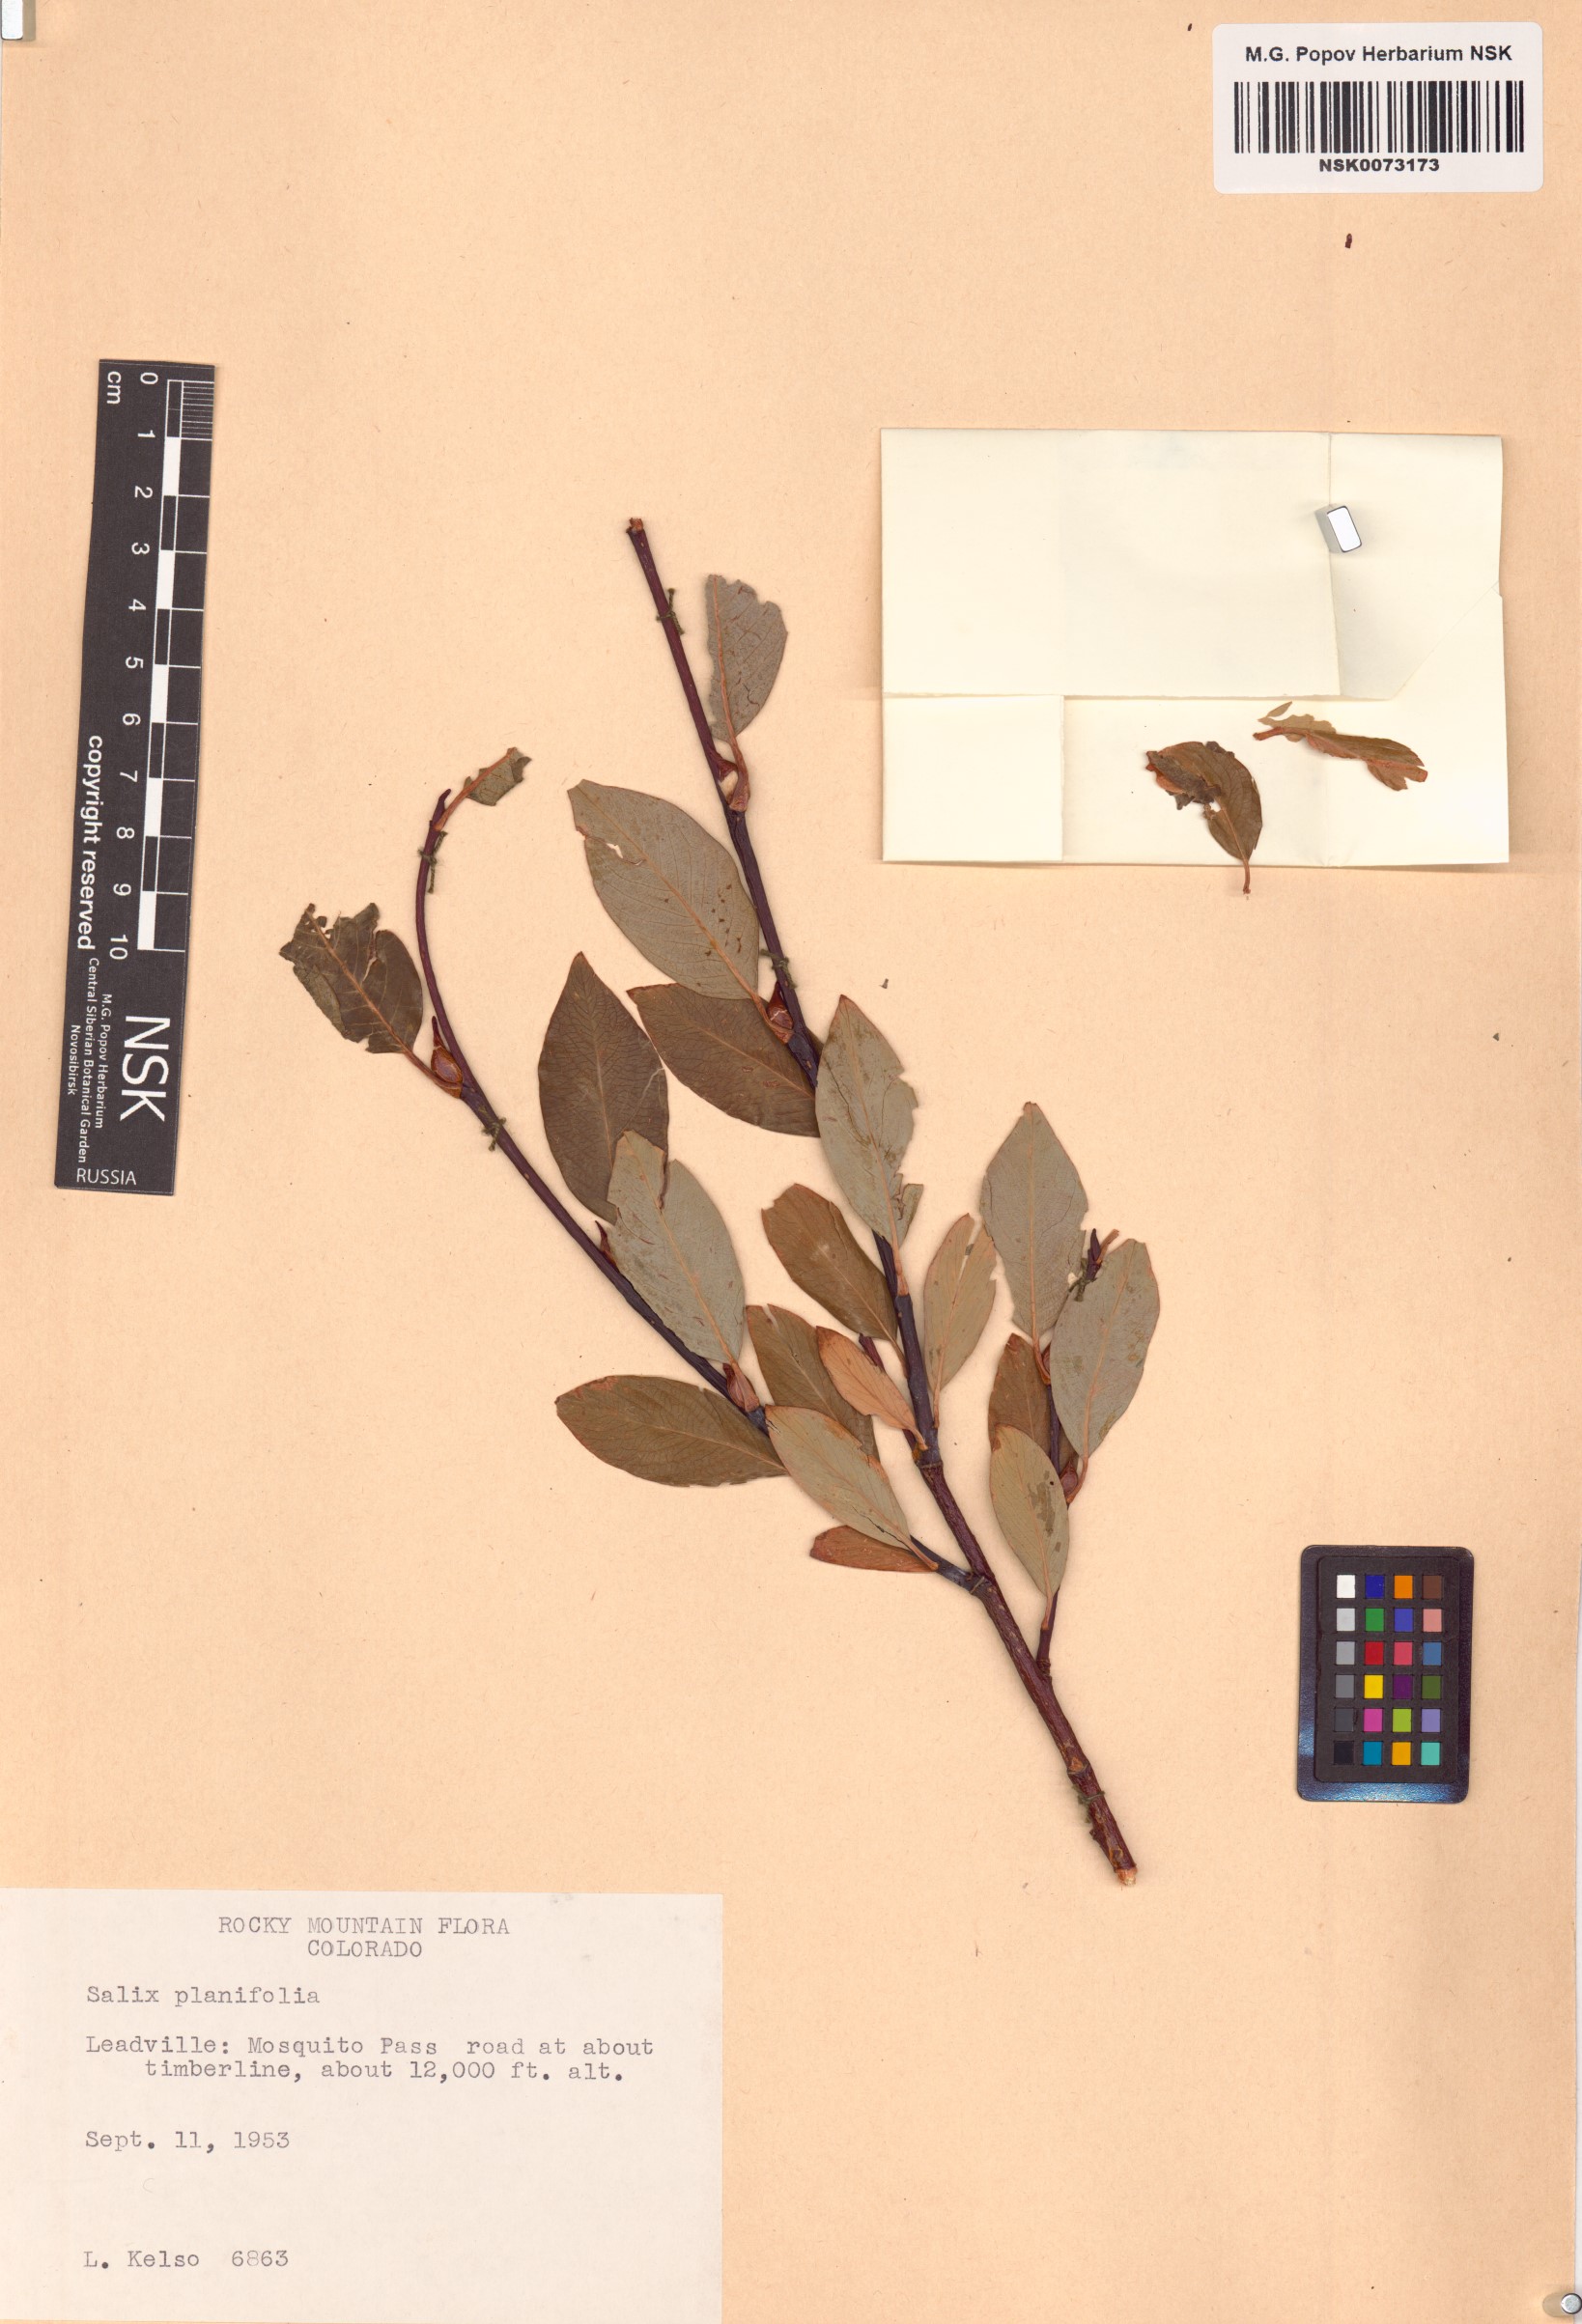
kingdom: Plantae
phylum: Tracheophyta
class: Magnoliopsida
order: Malpighiales
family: Salicaceae
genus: Salix
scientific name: Salix planifolia
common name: Mountain willow
